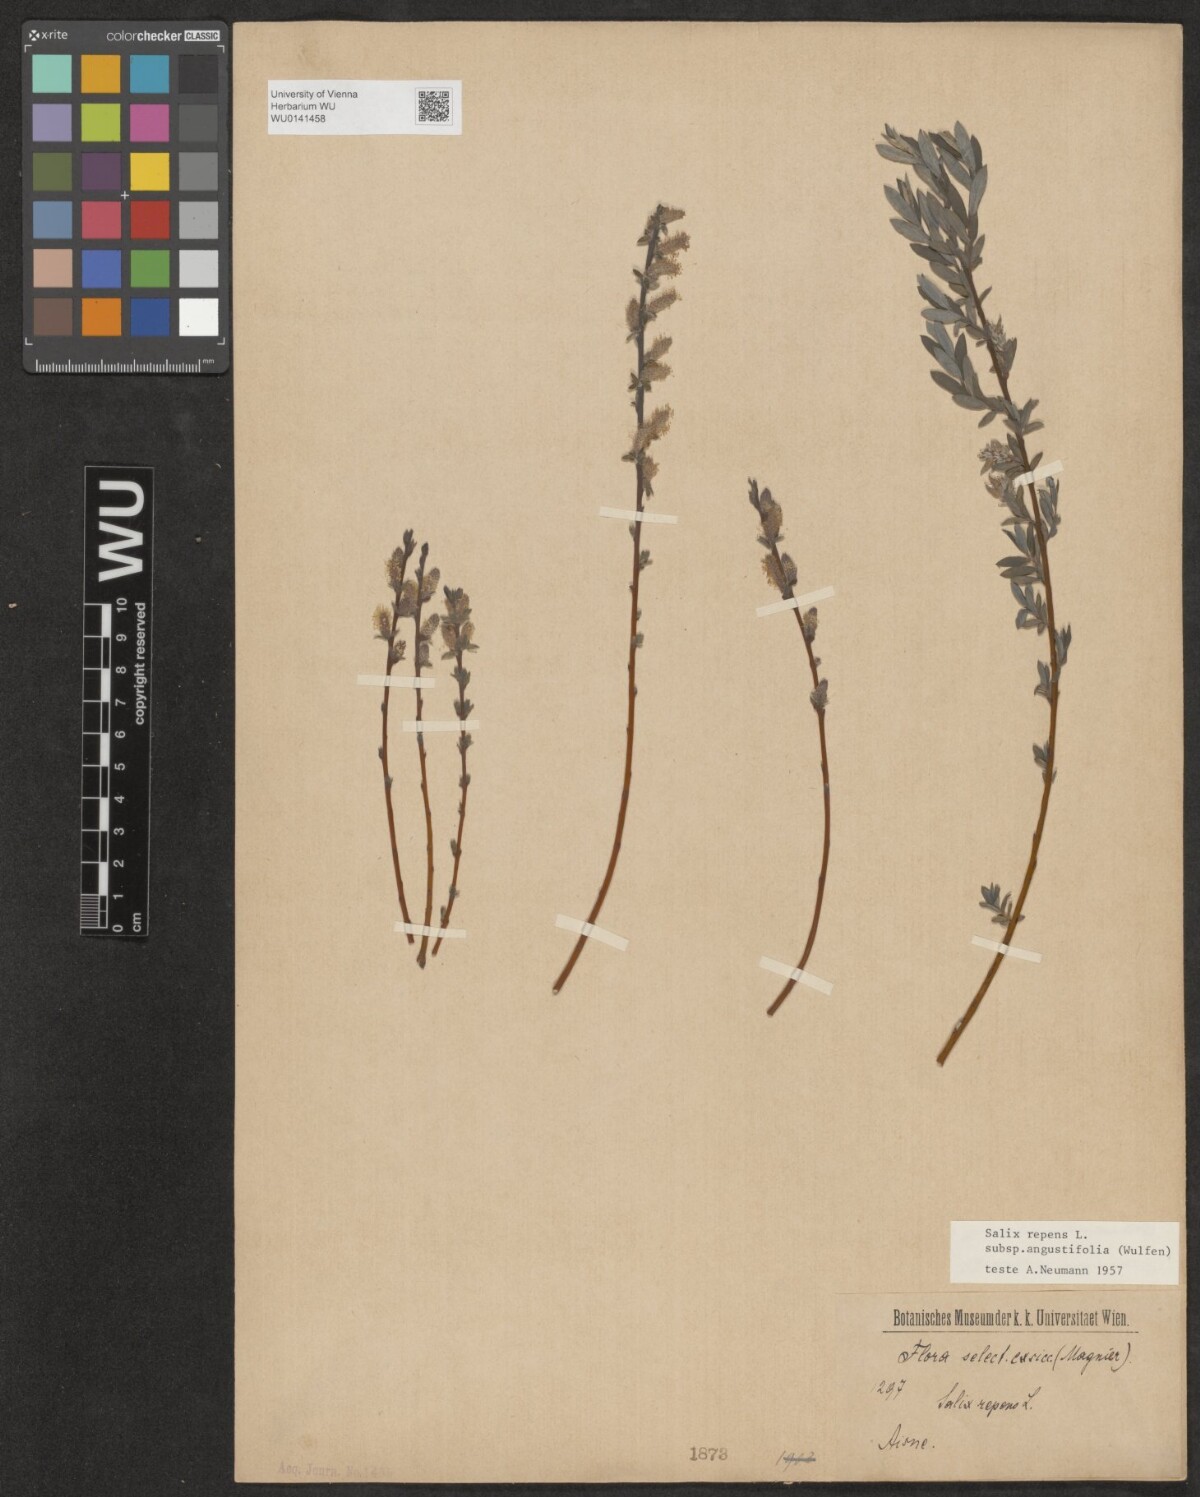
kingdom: Plantae
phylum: Tracheophyta
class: Magnoliopsida
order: Malpighiales
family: Salicaceae
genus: Salix
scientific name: Salix rosmarinifolia
